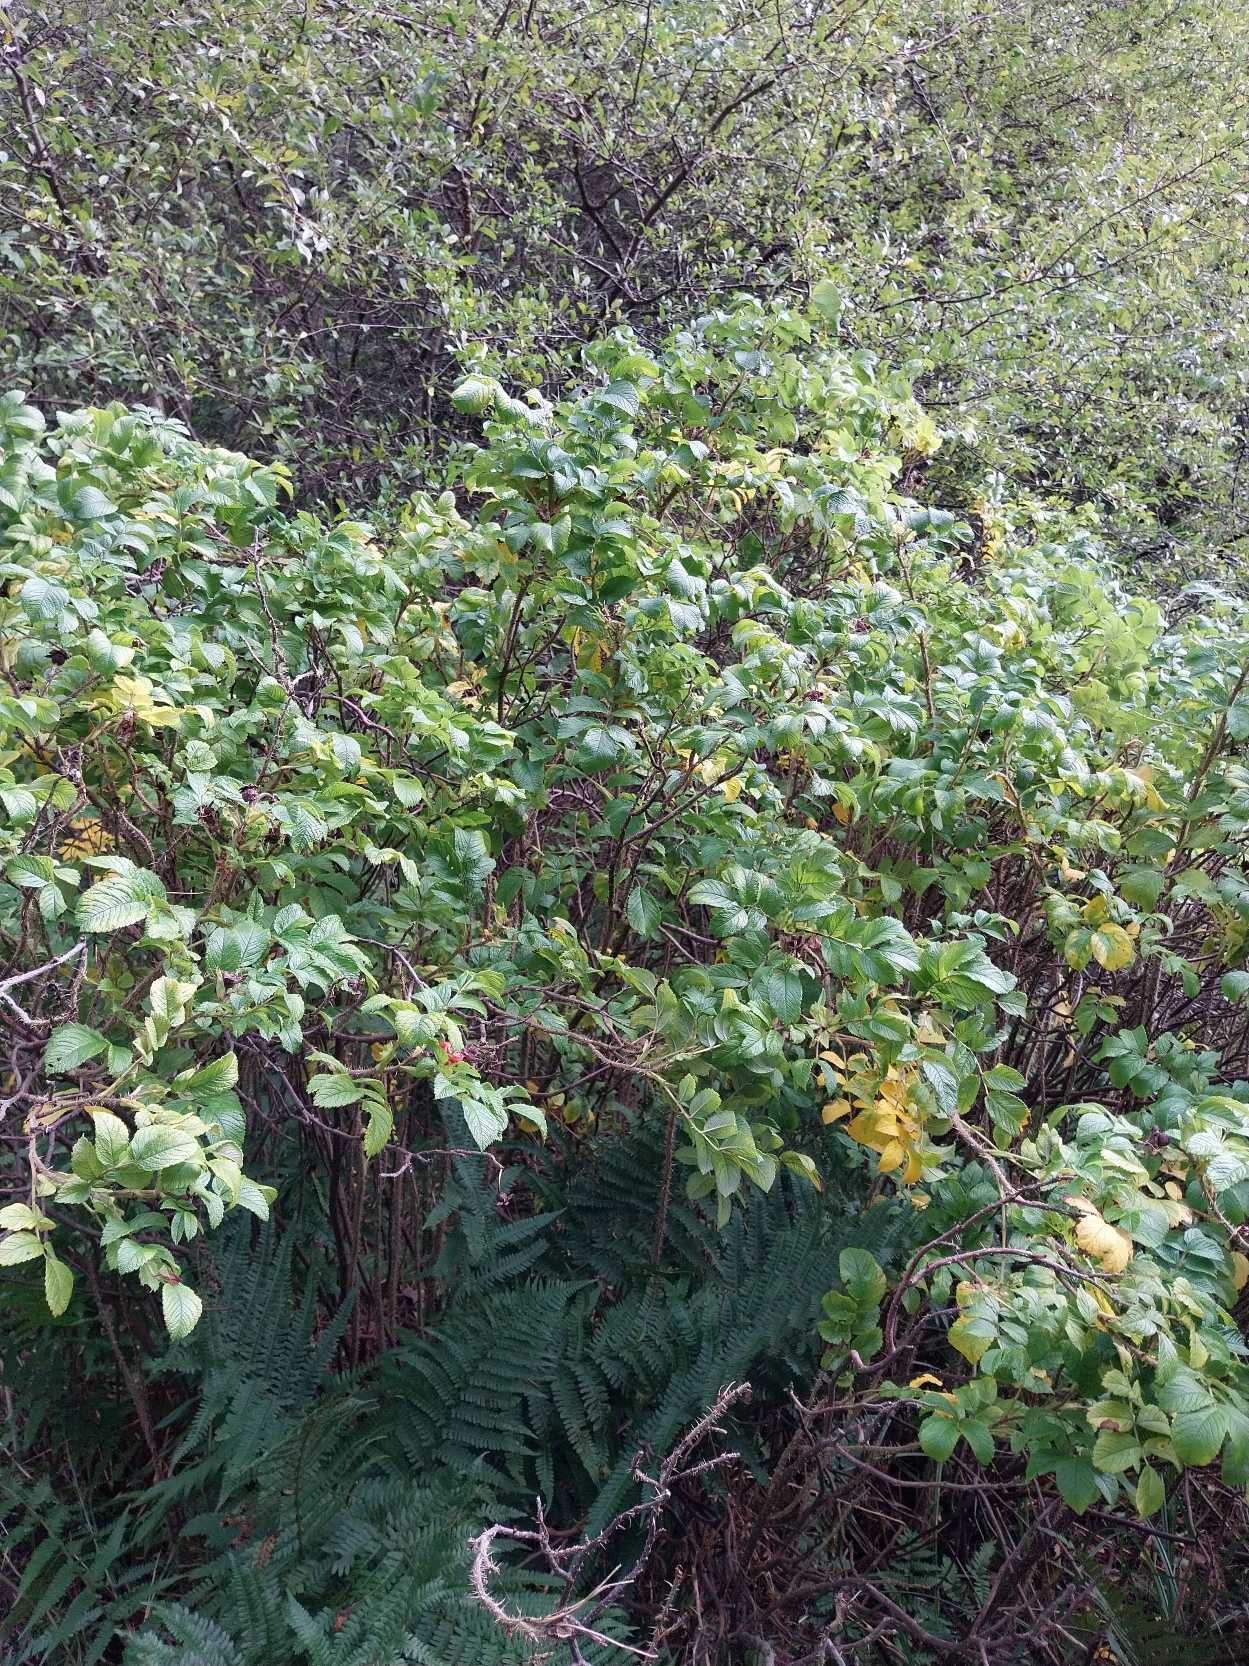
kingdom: Plantae
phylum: Tracheophyta
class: Magnoliopsida
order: Rosales
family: Rosaceae
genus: Rosa
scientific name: Rosa rugosa
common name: Rynket rose
